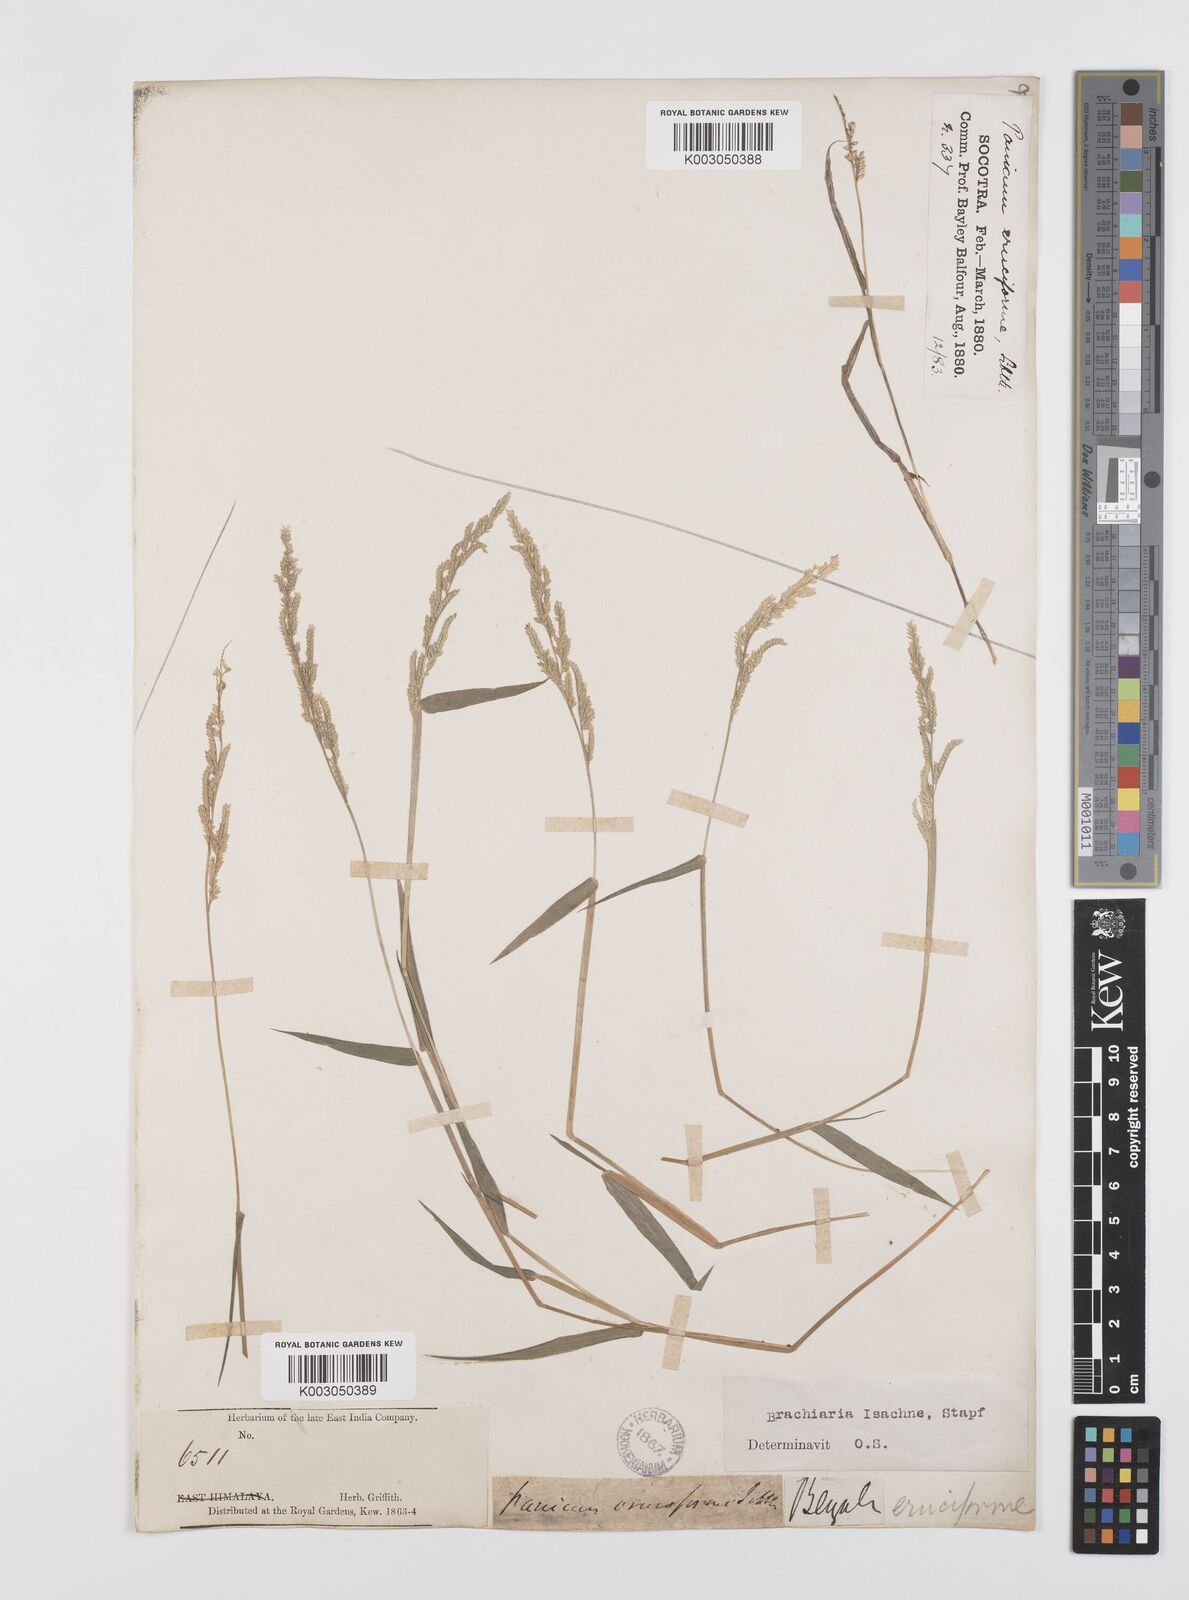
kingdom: Plantae
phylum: Tracheophyta
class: Liliopsida
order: Poales
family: Poaceae
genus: Moorochloa
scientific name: Moorochloa eruciformis
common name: Sweet signalgrass
